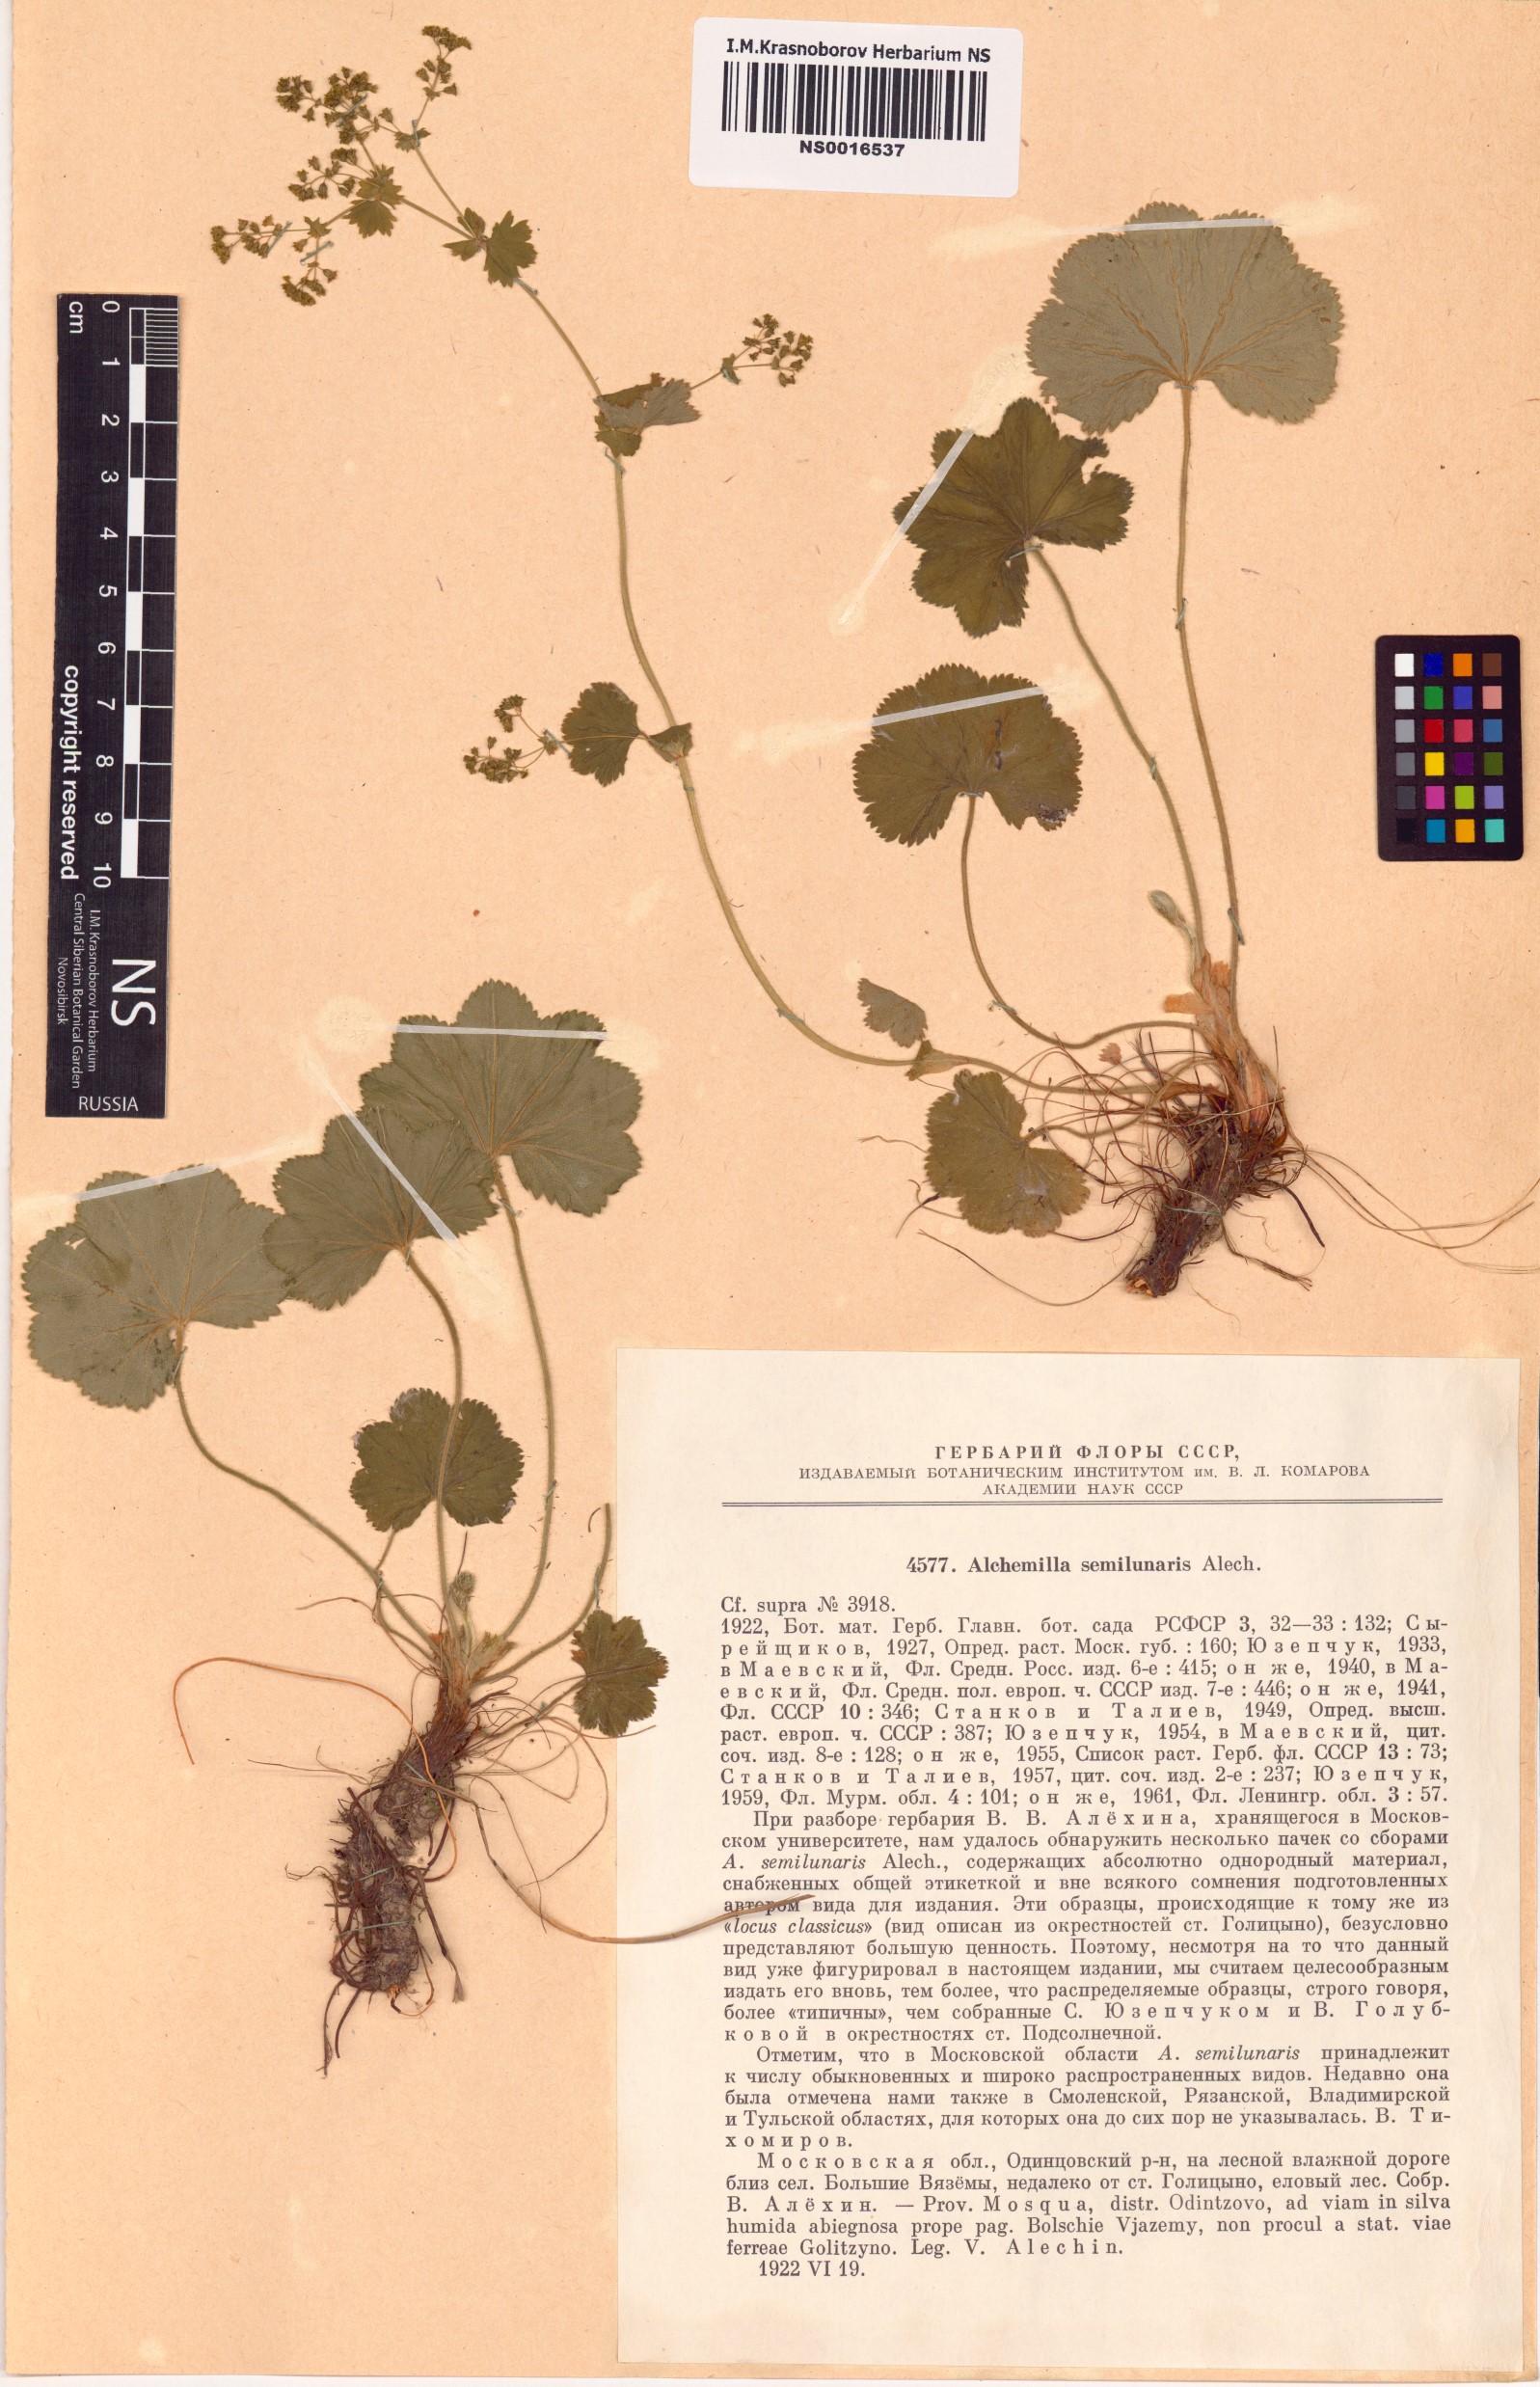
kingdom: Plantae
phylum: Tracheophyta
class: Magnoliopsida
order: Rosales
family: Rosaceae
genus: Alchemilla
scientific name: Alchemilla semilunaris
